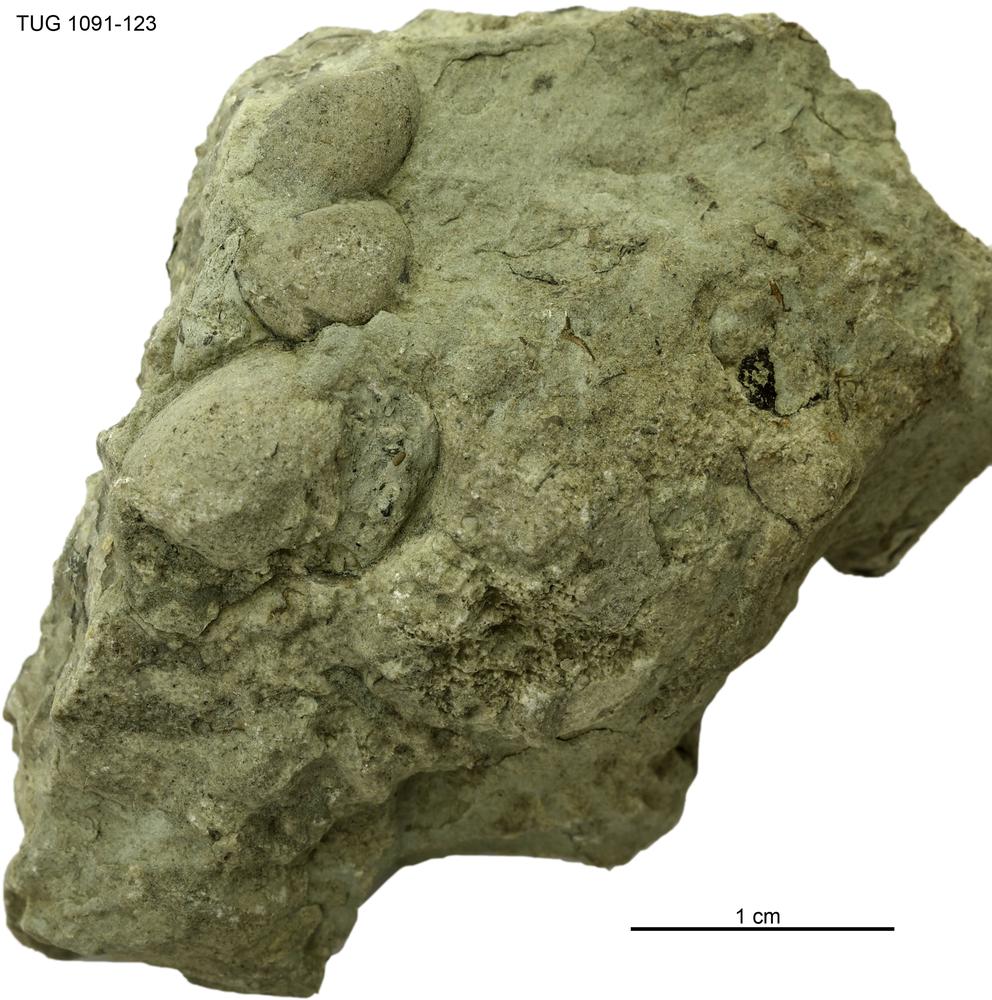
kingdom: Animalia
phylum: Mollusca
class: Gastropoda
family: Loxonematidae
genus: Loxonema
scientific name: Loxonema
